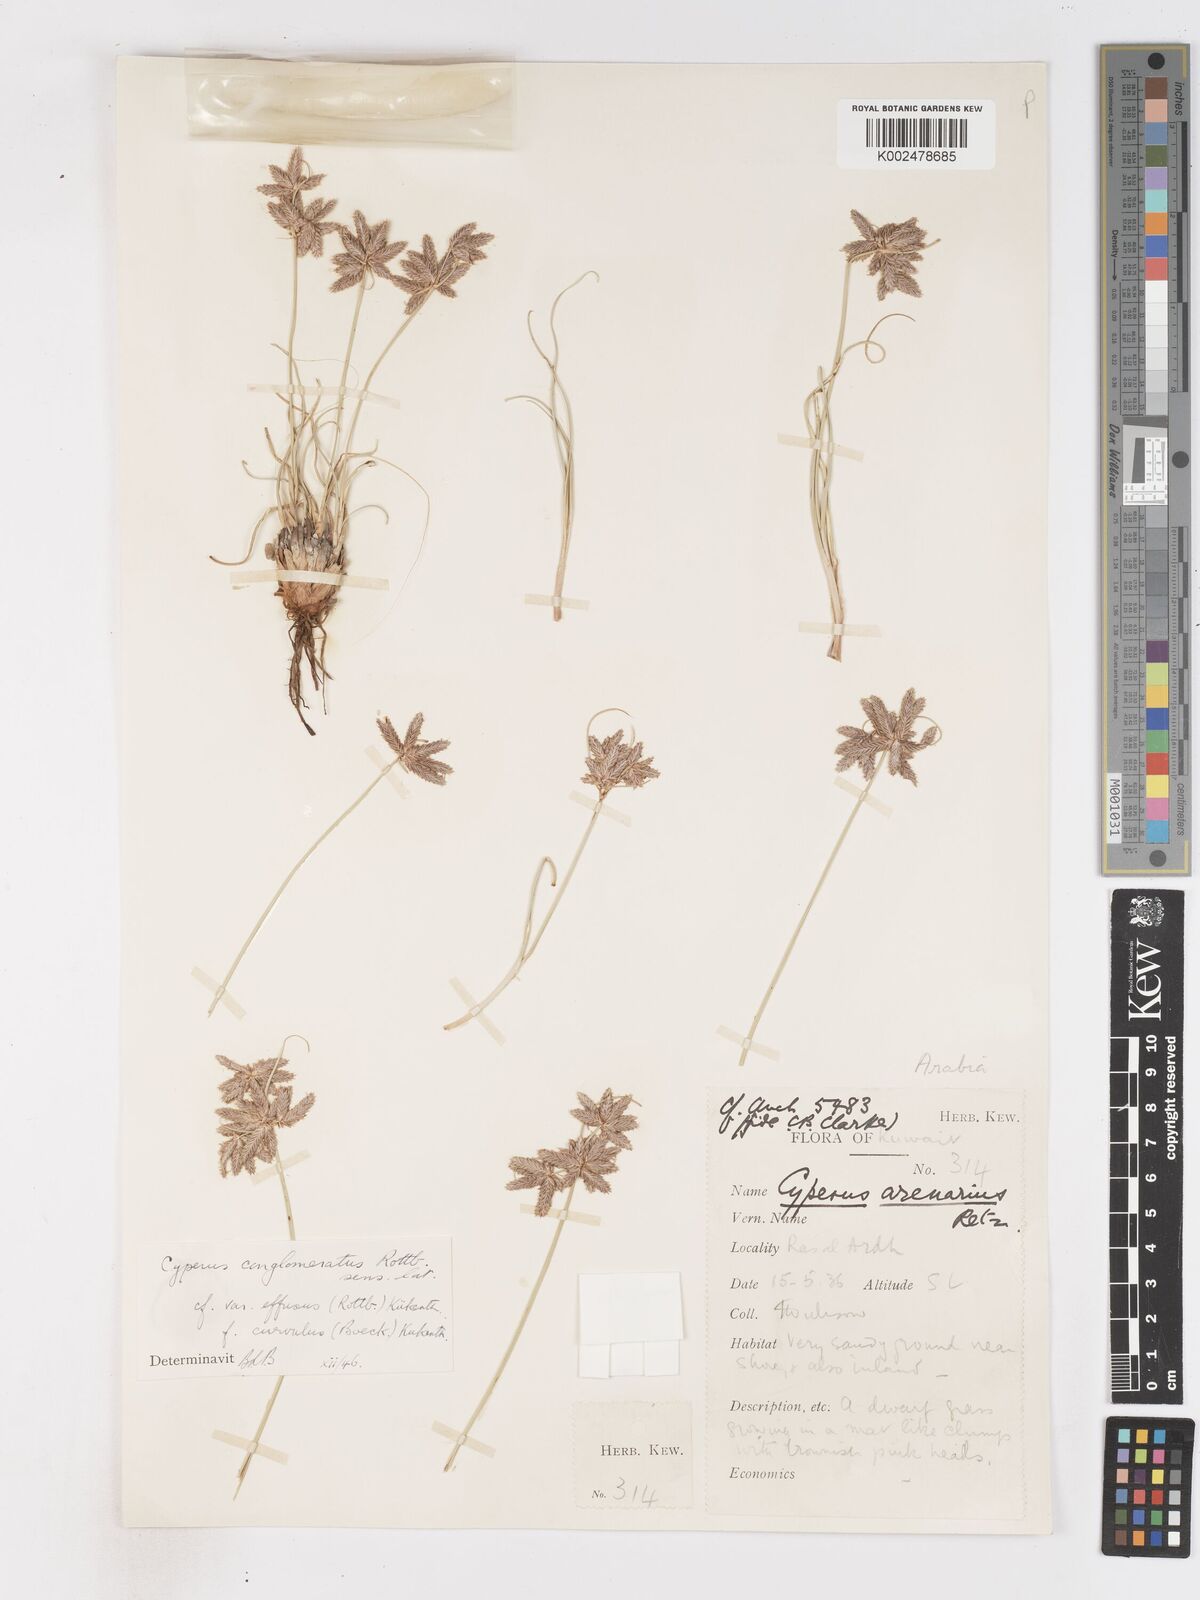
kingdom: Plantae
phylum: Tracheophyta
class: Liliopsida
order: Poales
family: Cyperaceae
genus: Cyperus
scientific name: Cyperus conglomeratus
